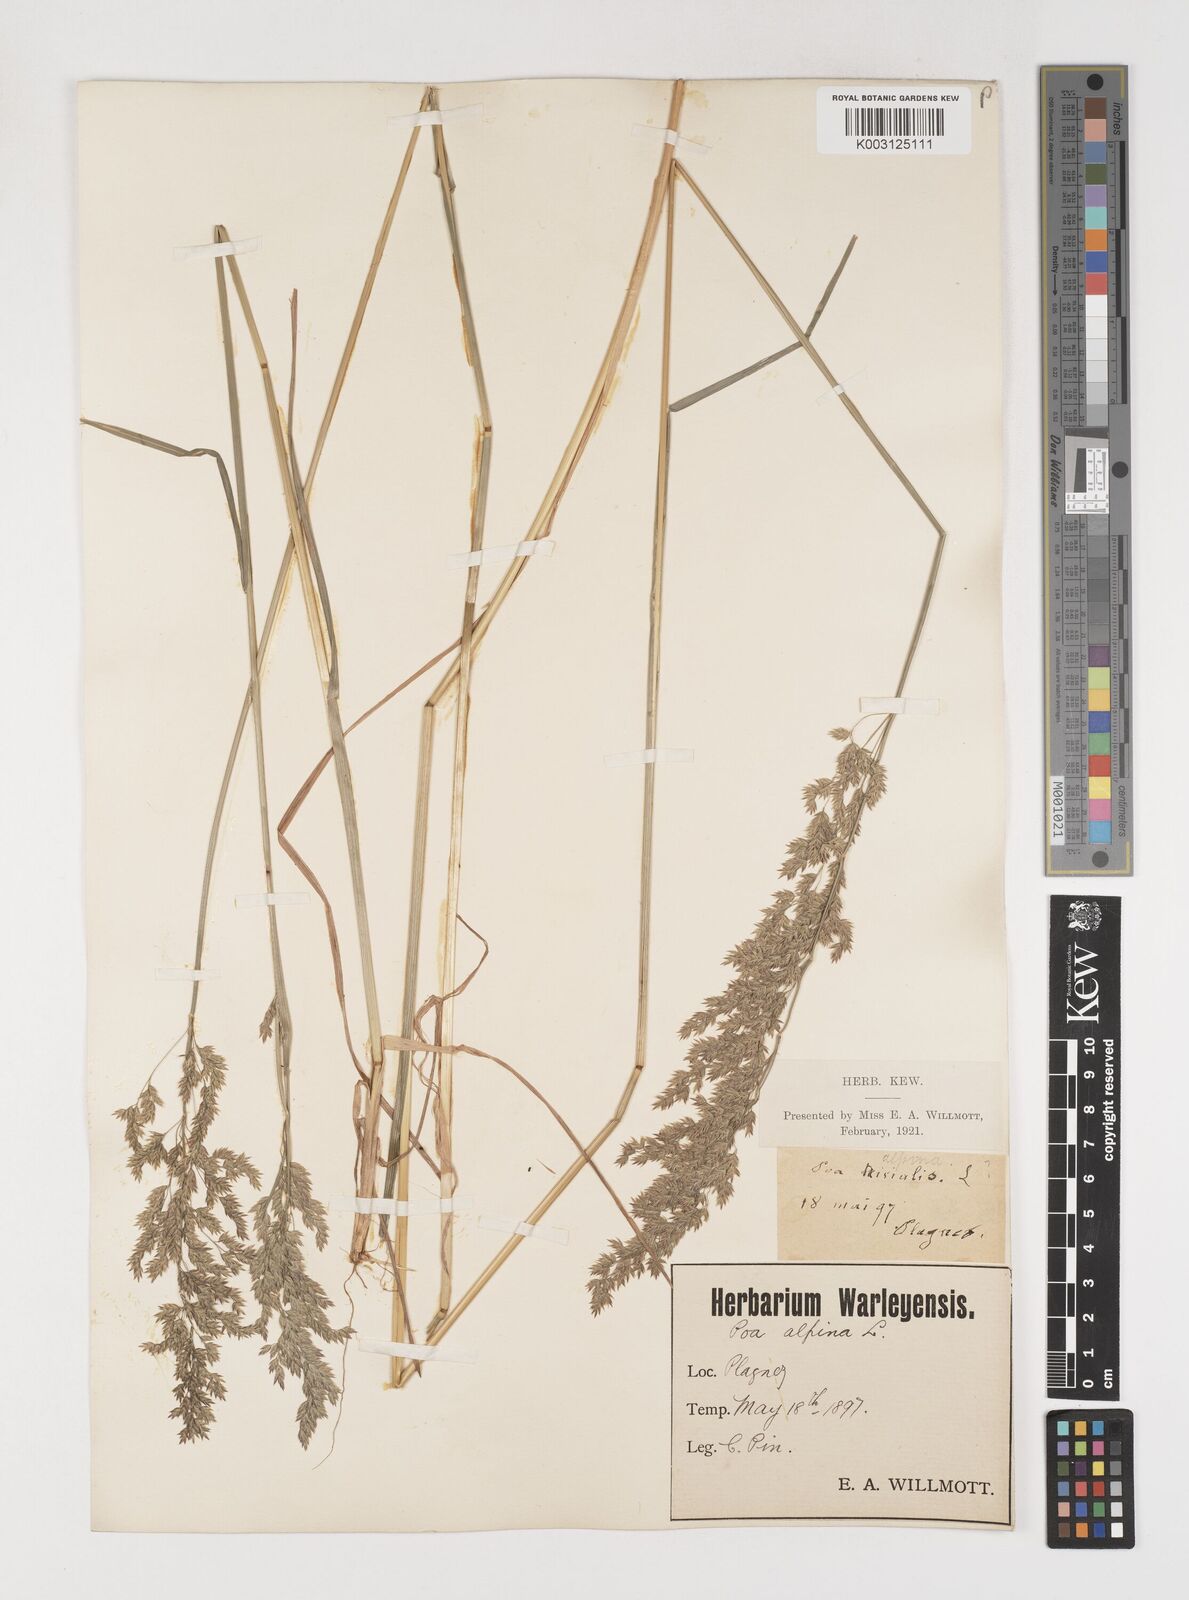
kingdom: Plantae
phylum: Tracheophyta
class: Liliopsida
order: Poales
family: Poaceae
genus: Poa
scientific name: Poa trivialis
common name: Rough bluegrass
